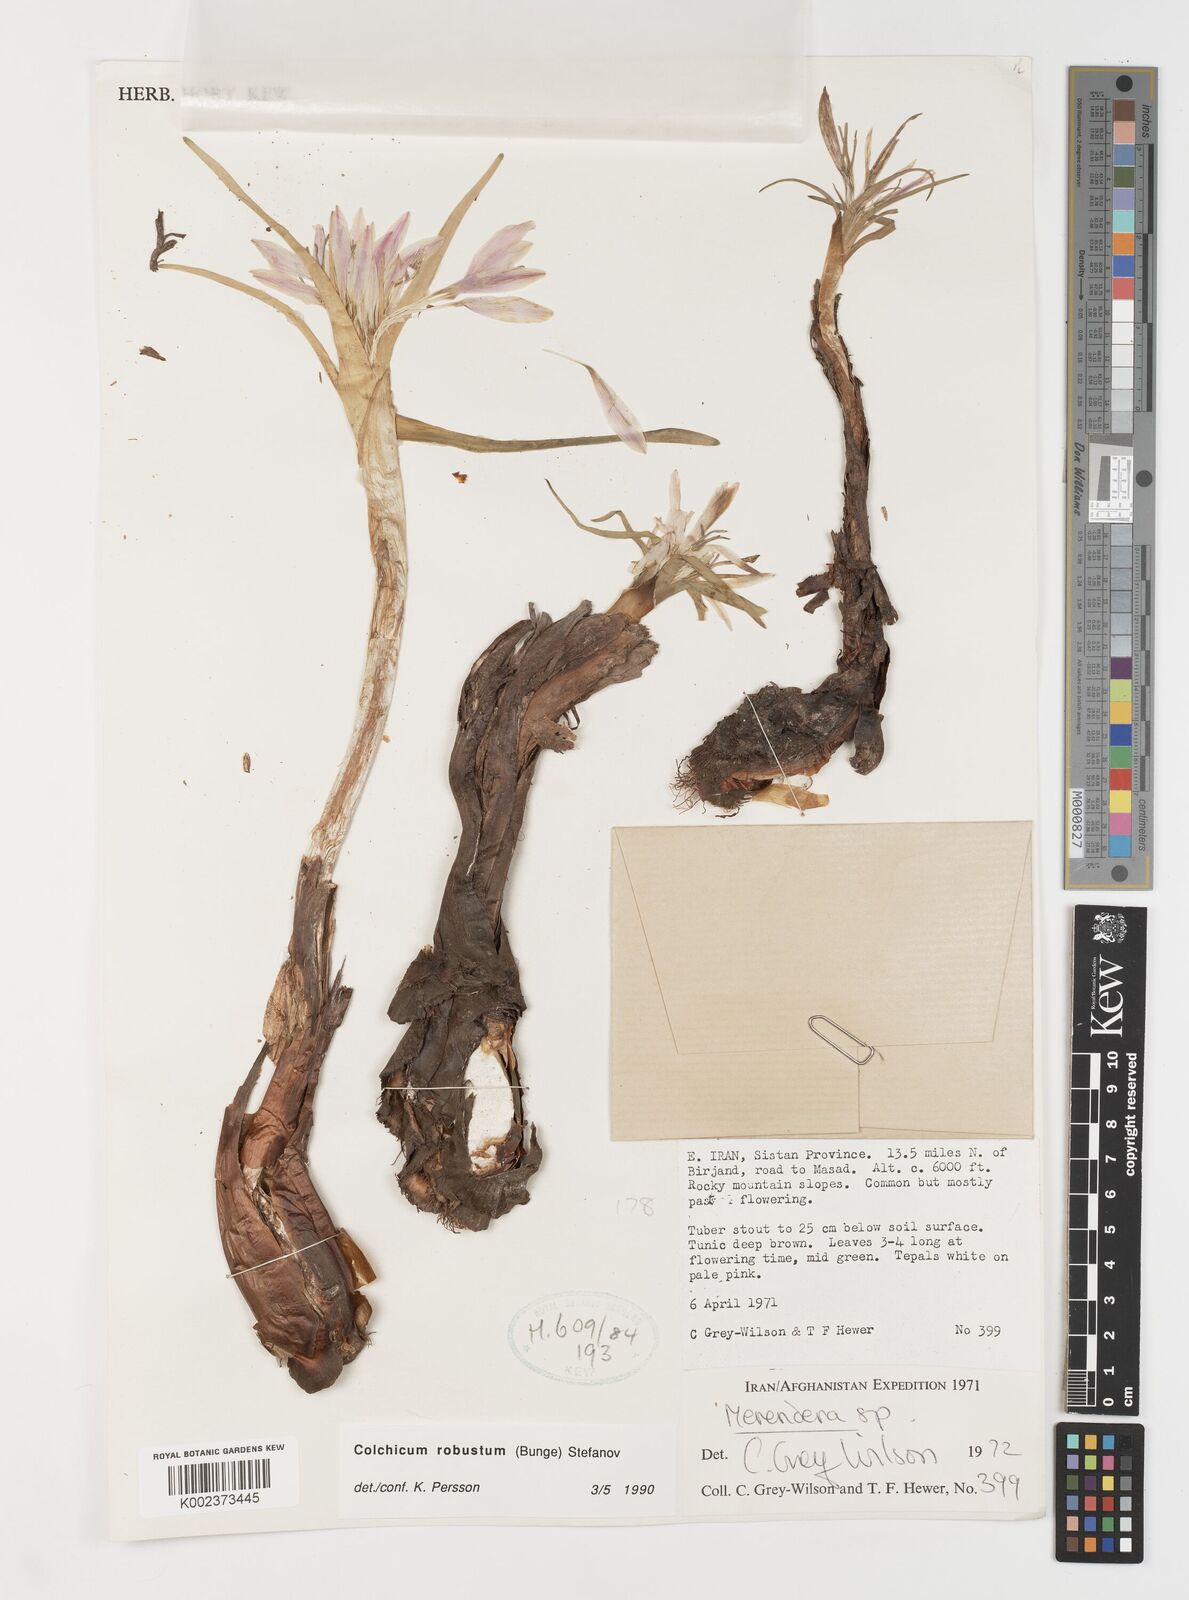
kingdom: Plantae
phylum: Tracheophyta
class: Liliopsida
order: Liliales
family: Colchicaceae
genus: Colchicum
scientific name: Colchicum robustum
